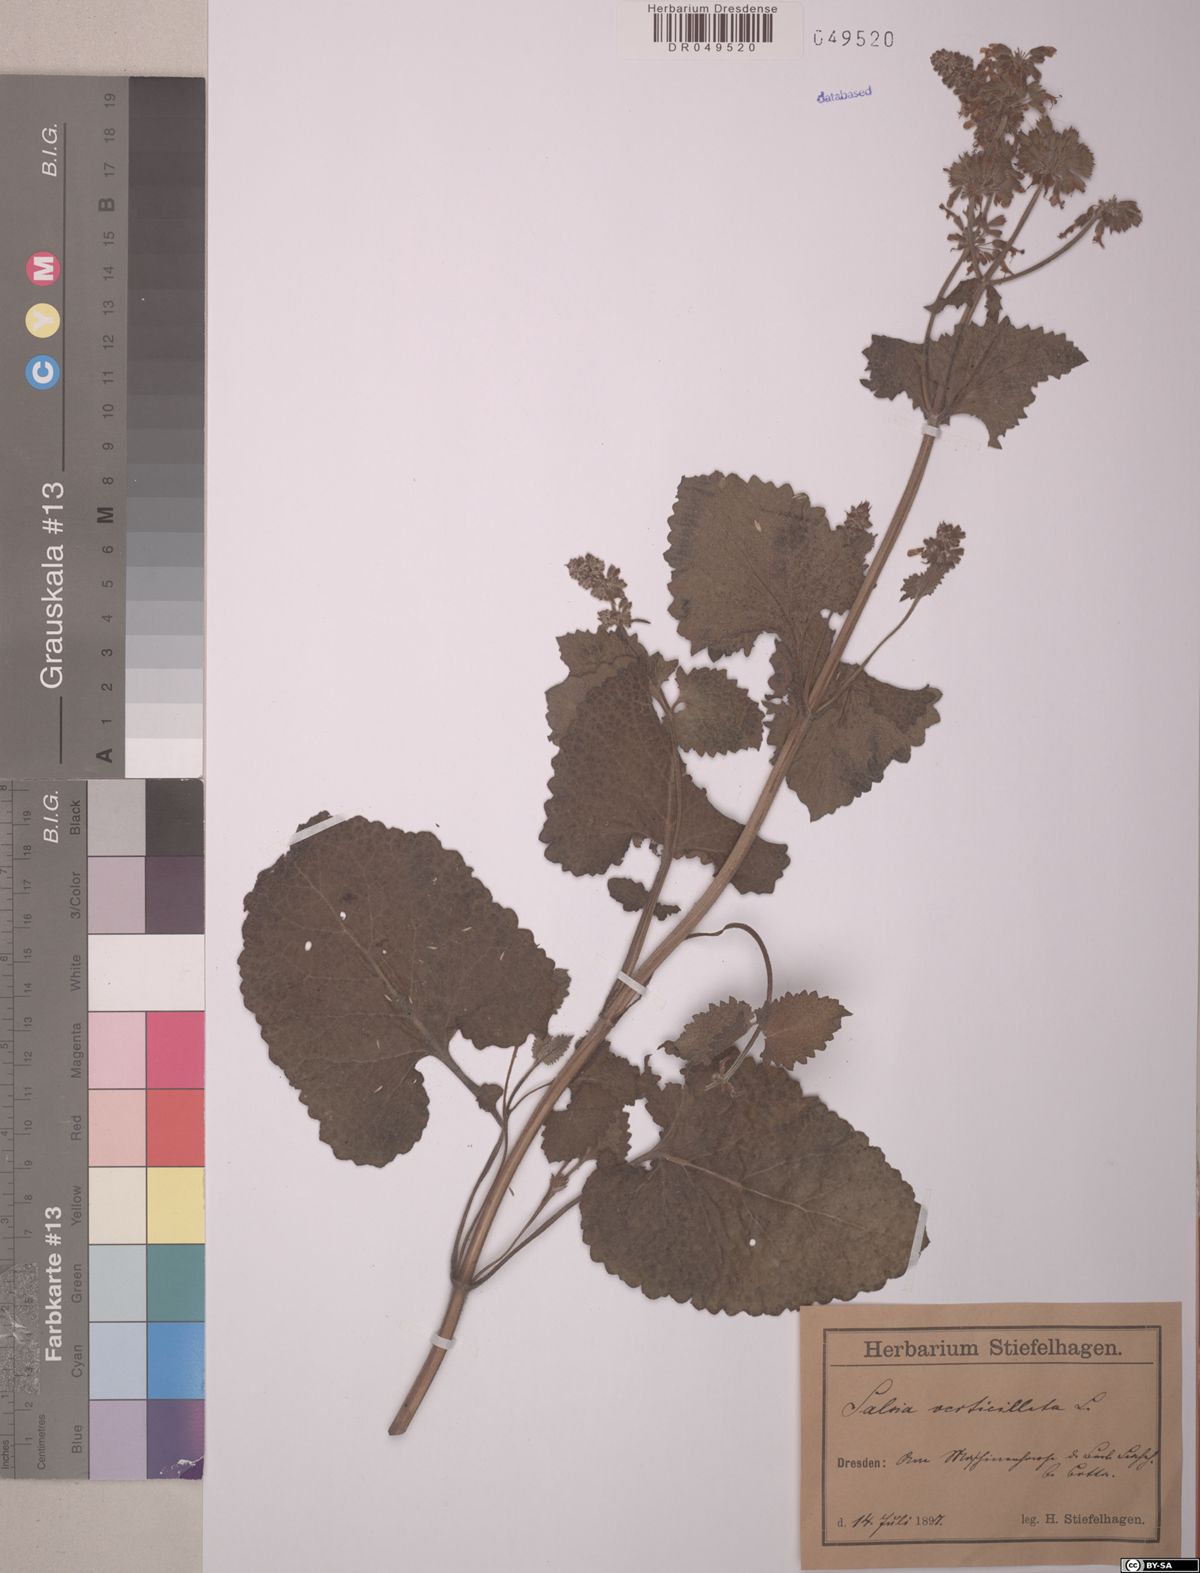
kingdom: Plantae
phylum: Tracheophyta
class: Magnoliopsida
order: Lamiales
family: Lamiaceae
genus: Salvia
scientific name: Salvia verticillata
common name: Whorled clary
